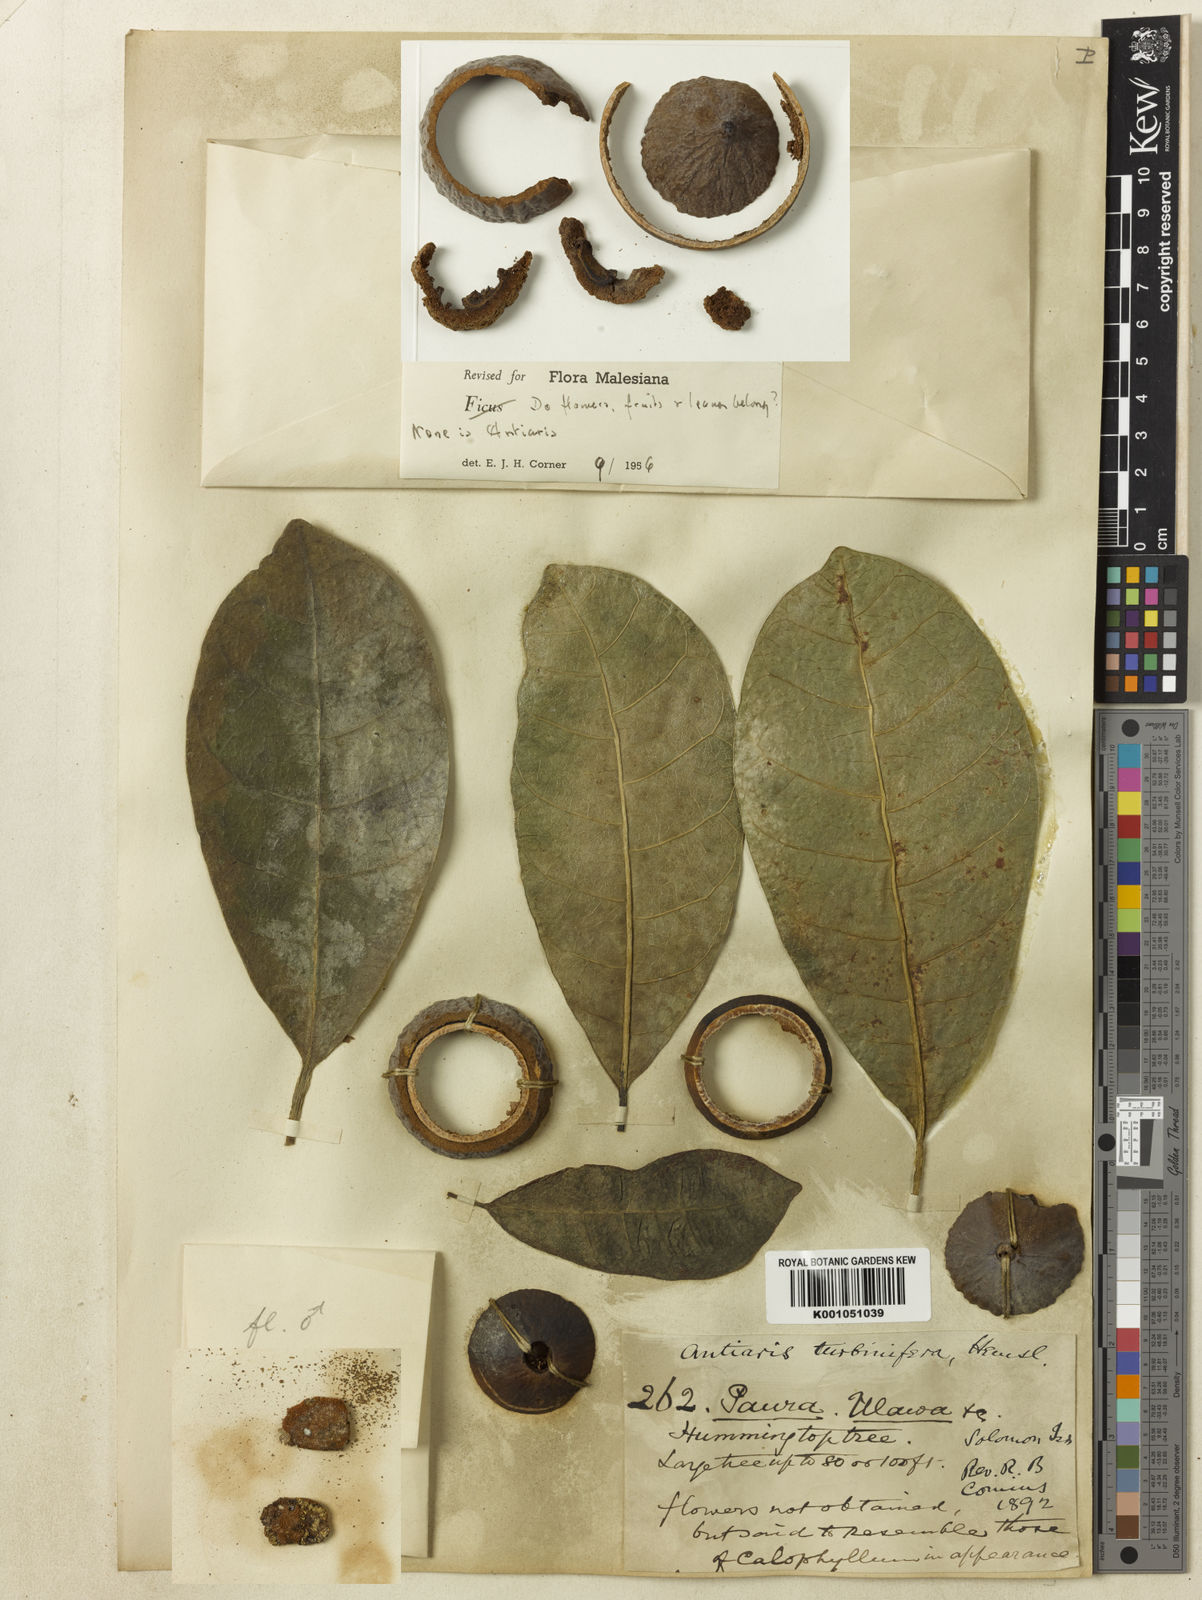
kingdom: Plantae
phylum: Tracheophyta
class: Magnoliopsida
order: Rosales
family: Moraceae
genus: Antiaris
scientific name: Antiaris toxicaria
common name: Sackingtree
